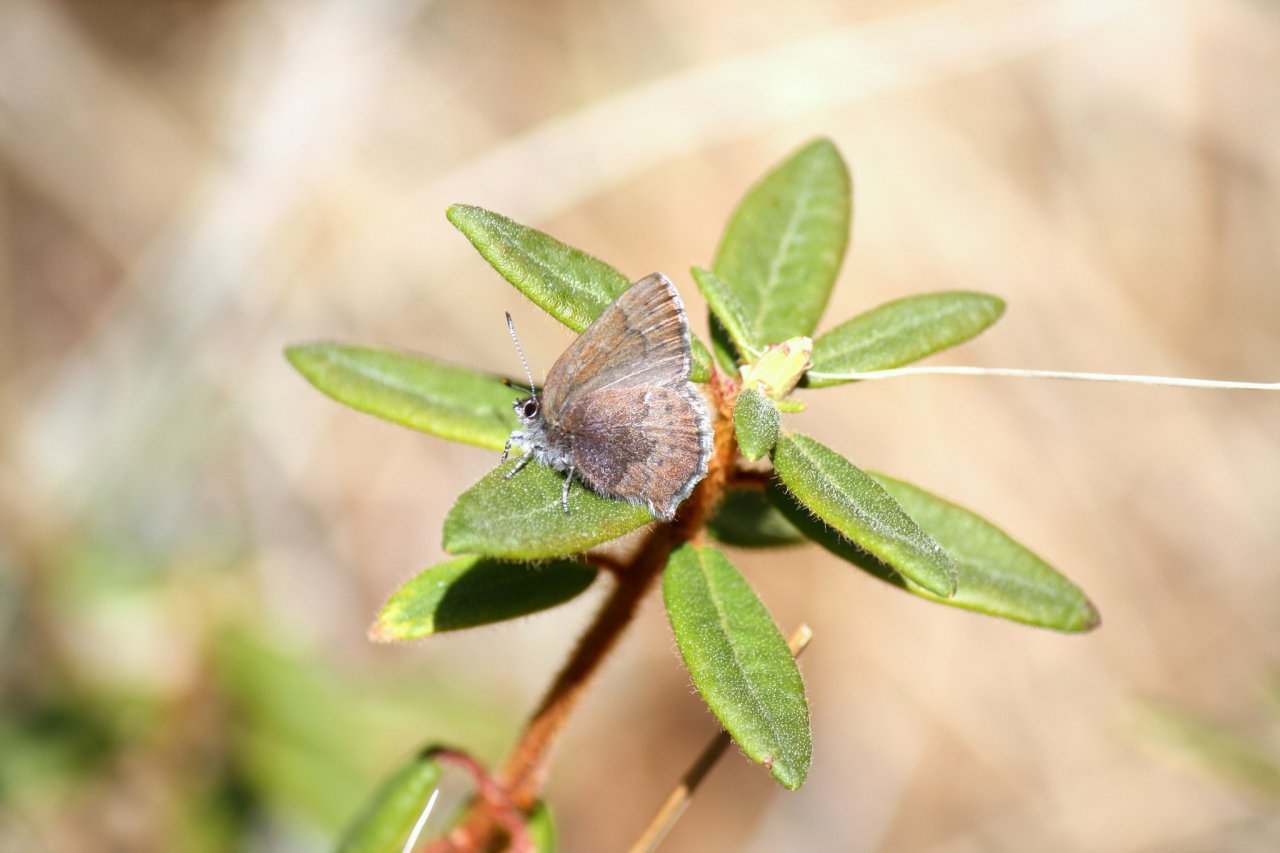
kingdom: Animalia
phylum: Arthropoda
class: Insecta
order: Lepidoptera
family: Lycaenidae
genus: Callophrys
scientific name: Callophrys polios
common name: Hoary Elfin
